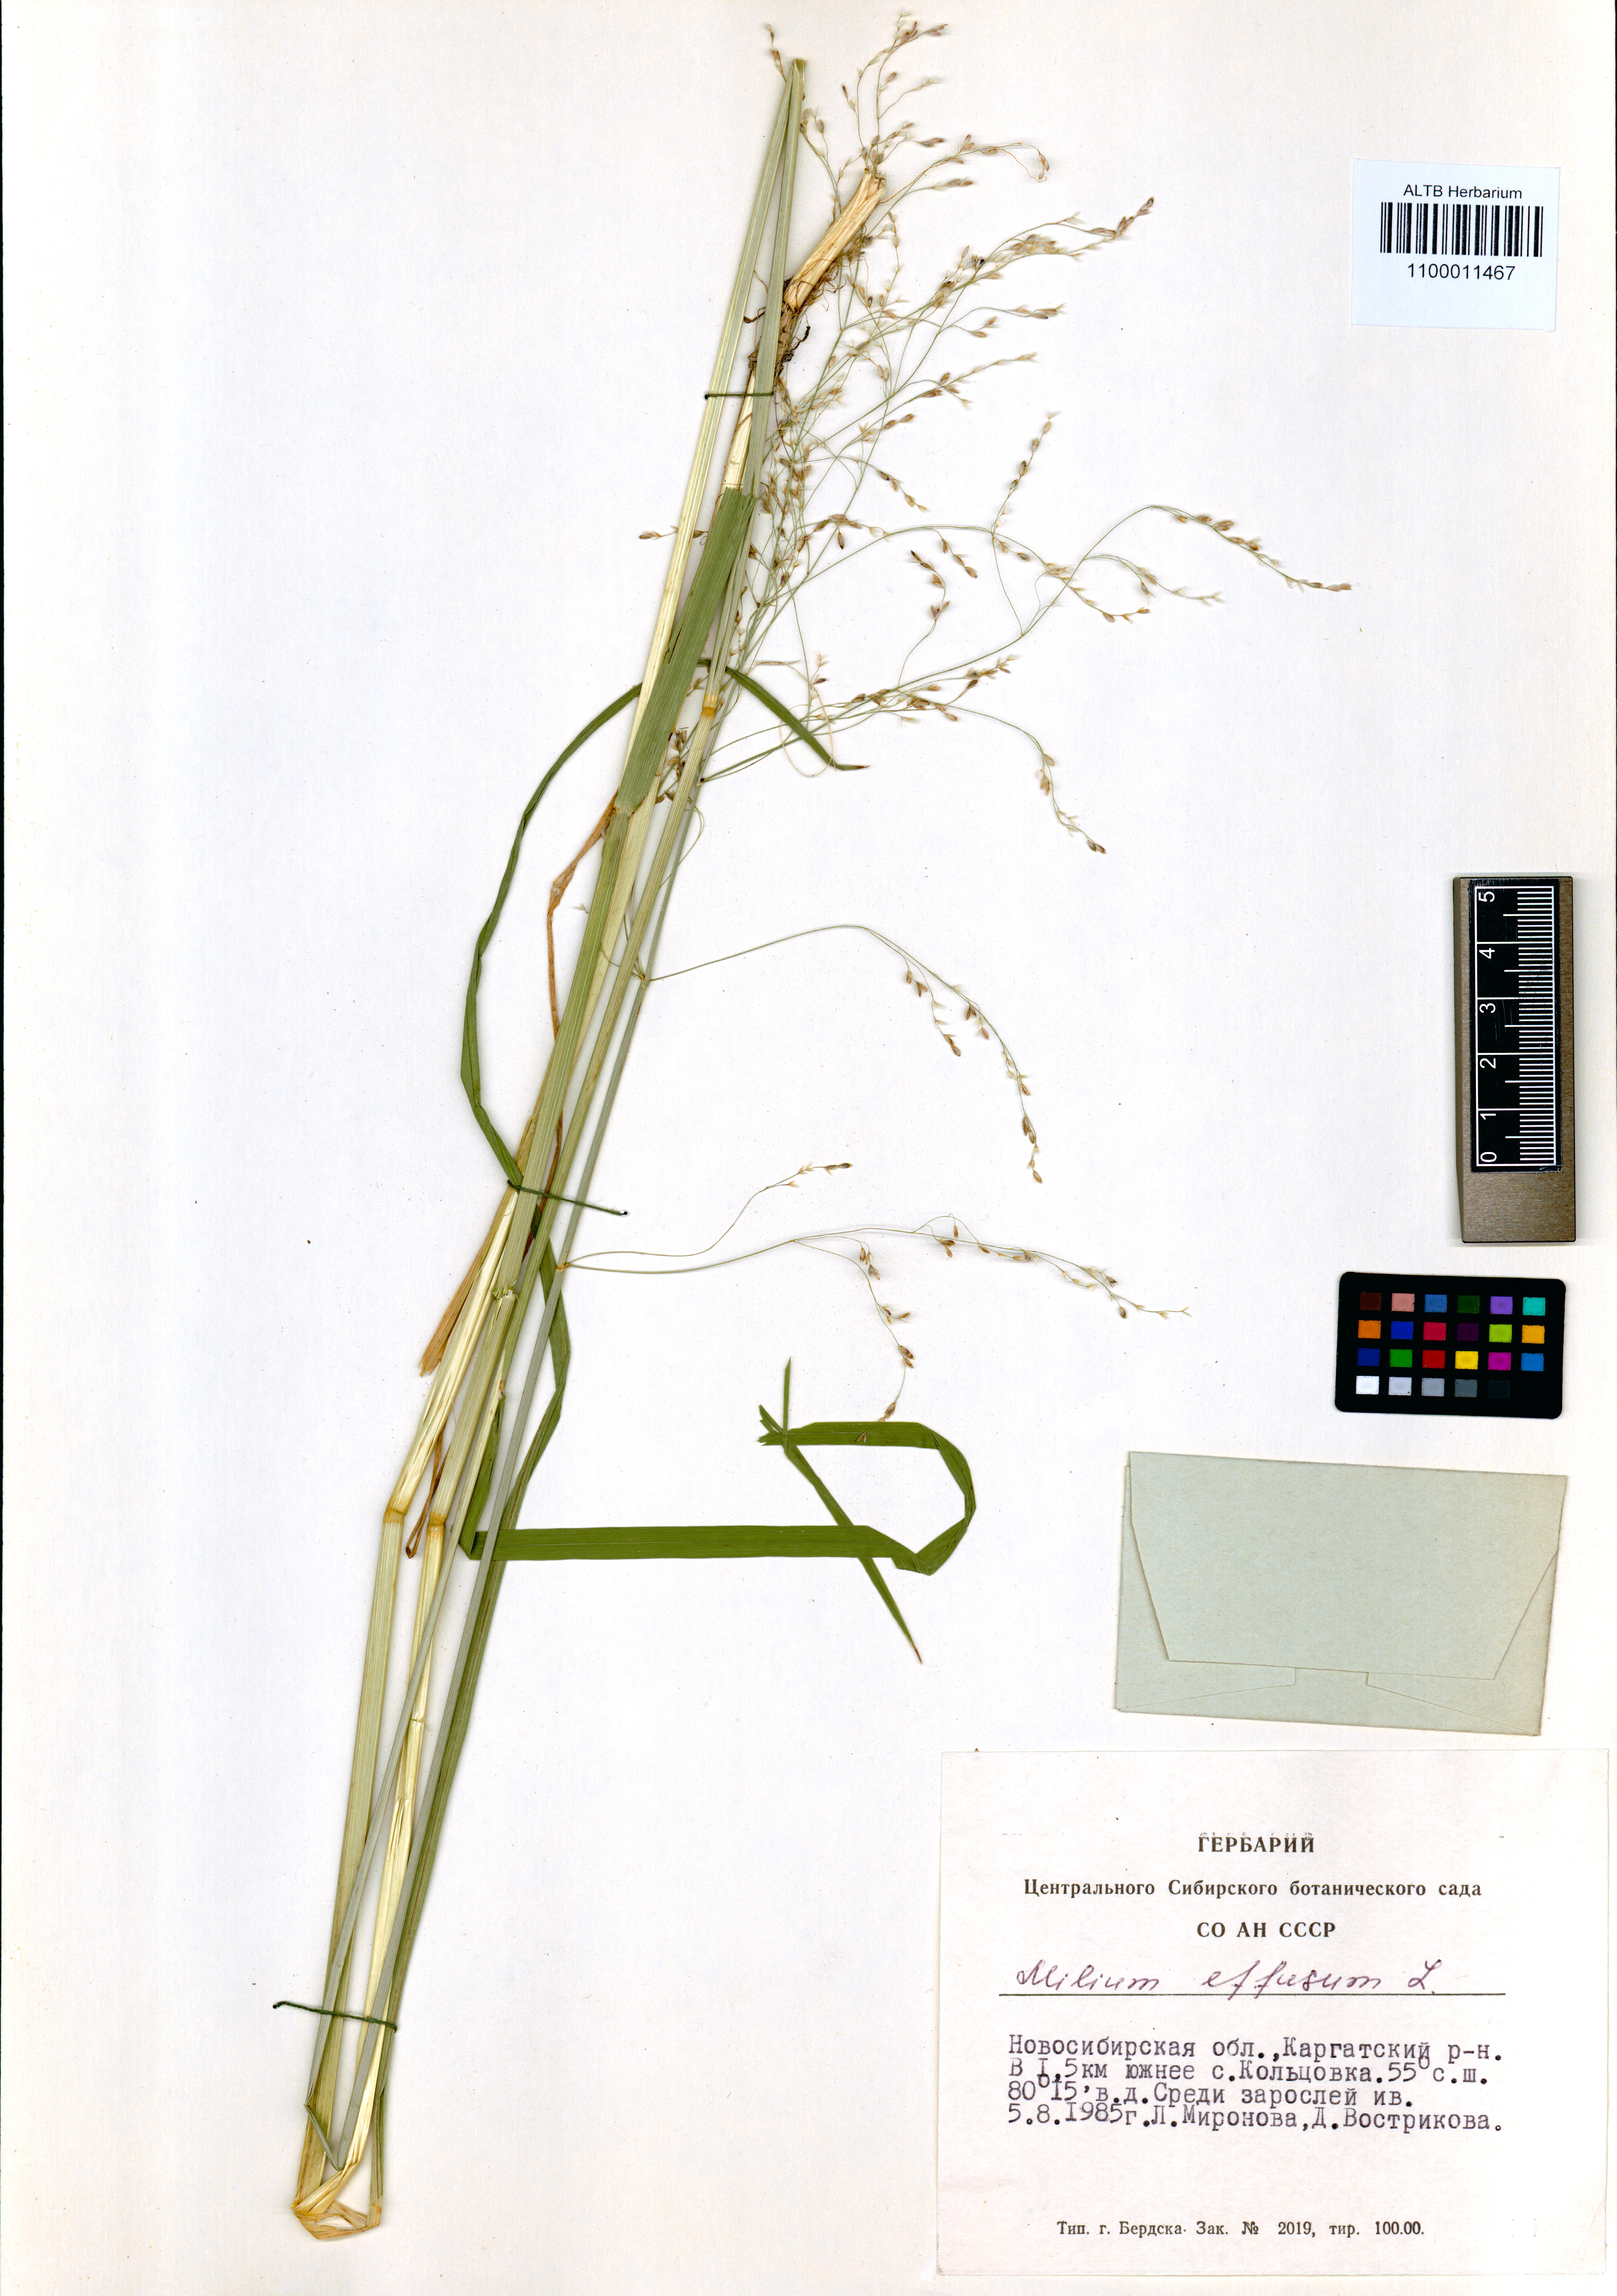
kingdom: Plantae
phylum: Tracheophyta
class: Liliopsida
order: Poales
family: Poaceae
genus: Milium
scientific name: Milium effusum
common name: Wood millet
